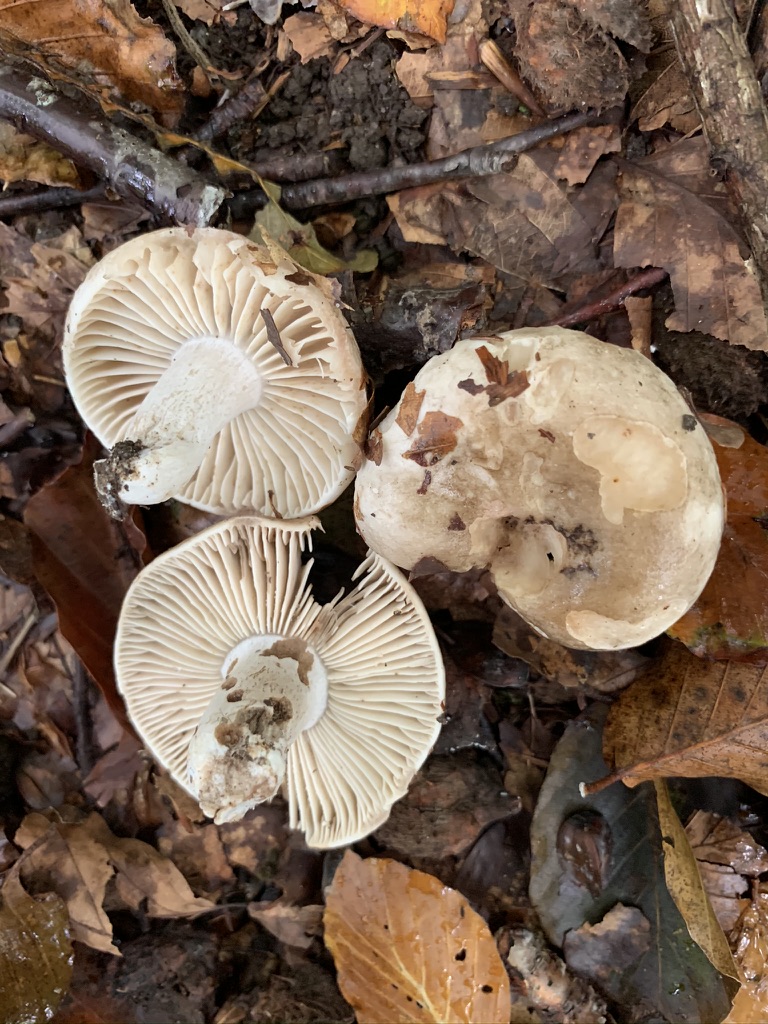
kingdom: Fungi
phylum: Basidiomycota
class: Agaricomycetes
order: Russulales
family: Russulaceae
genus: Russula
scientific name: Russula adusta
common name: sværtende skørhat
